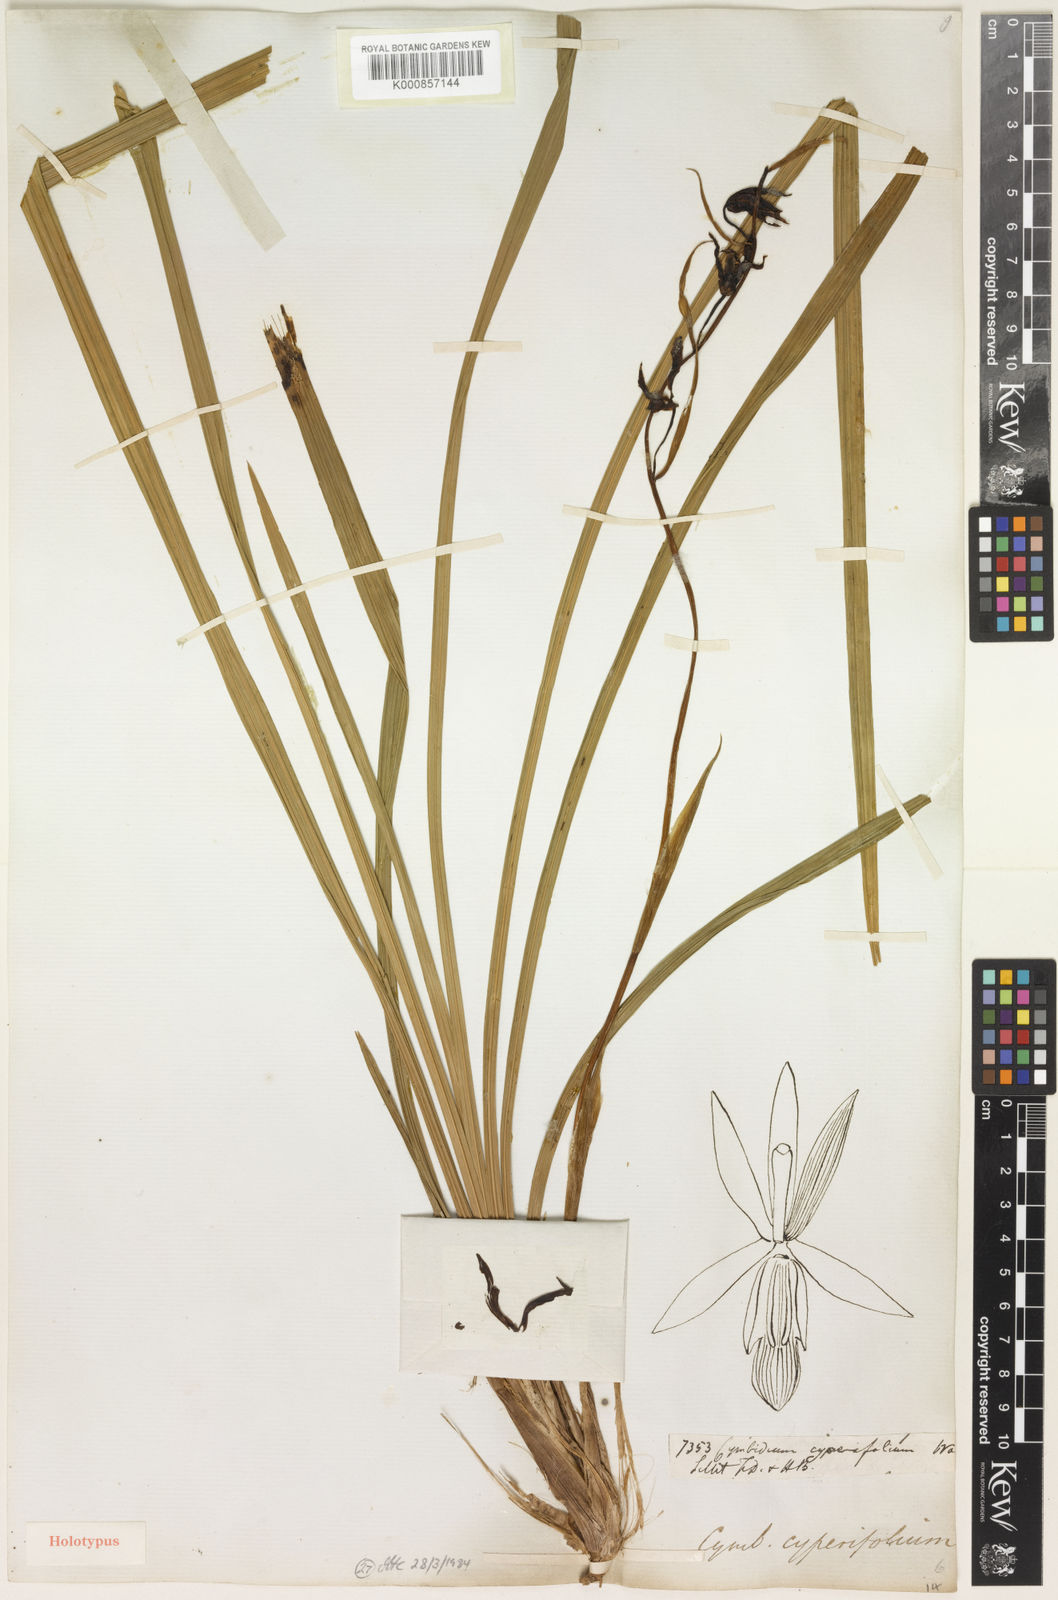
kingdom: Plantae
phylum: Tracheophyta
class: Liliopsida
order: Asparagales
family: Orchidaceae
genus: Cymbidium
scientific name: Cymbidium cyperifolium
